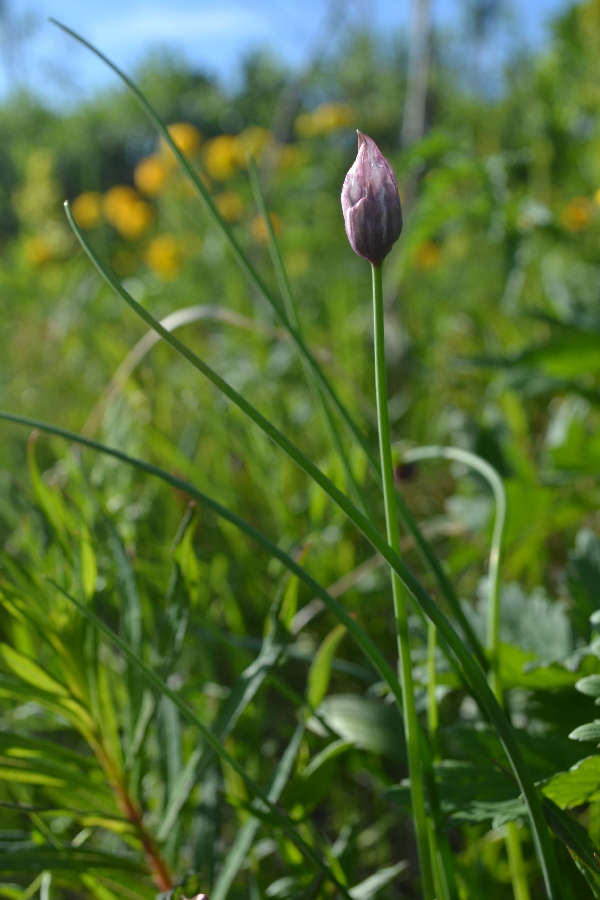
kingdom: Plantae
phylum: Tracheophyta
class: Liliopsida
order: Asparagales
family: Amaryllidaceae
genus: Allium
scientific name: Allium schoenoprasum
